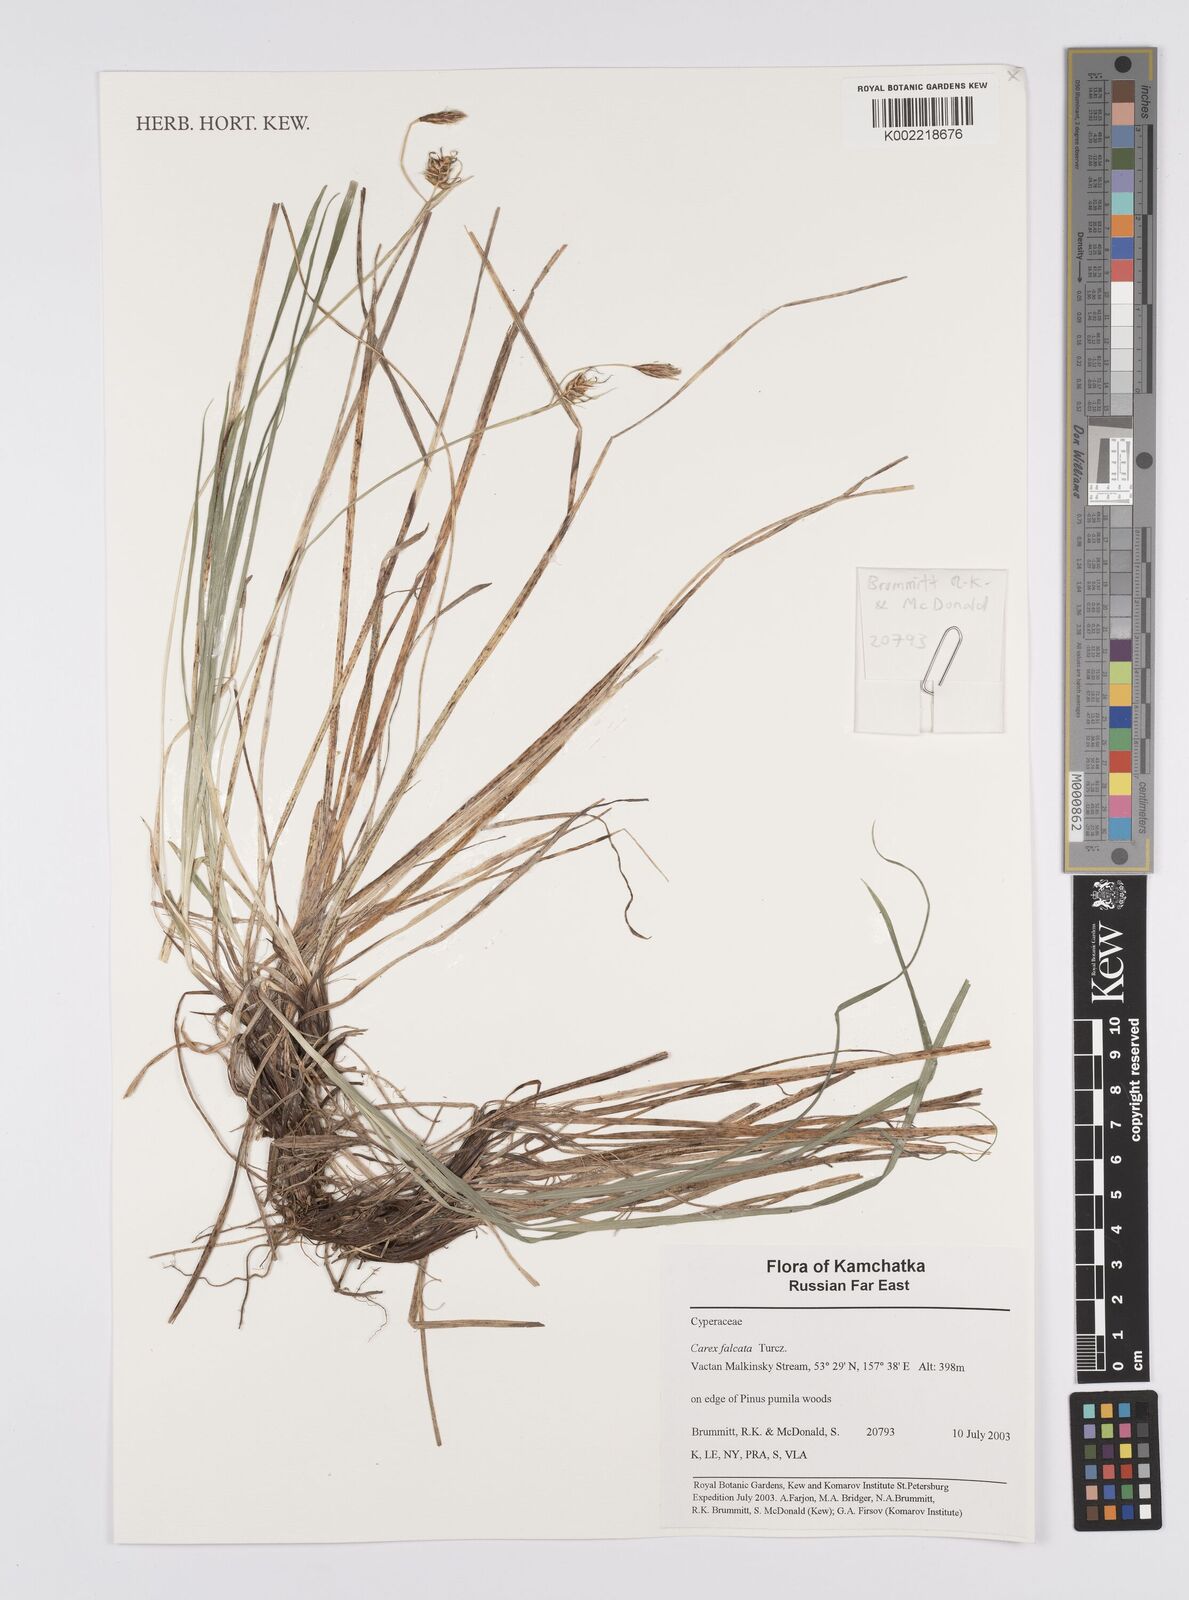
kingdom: Plantae
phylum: Tracheophyta
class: Liliopsida
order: Poales
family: Cyperaceae
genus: Carex
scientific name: Carex vaginata
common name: Sheathed sedge
